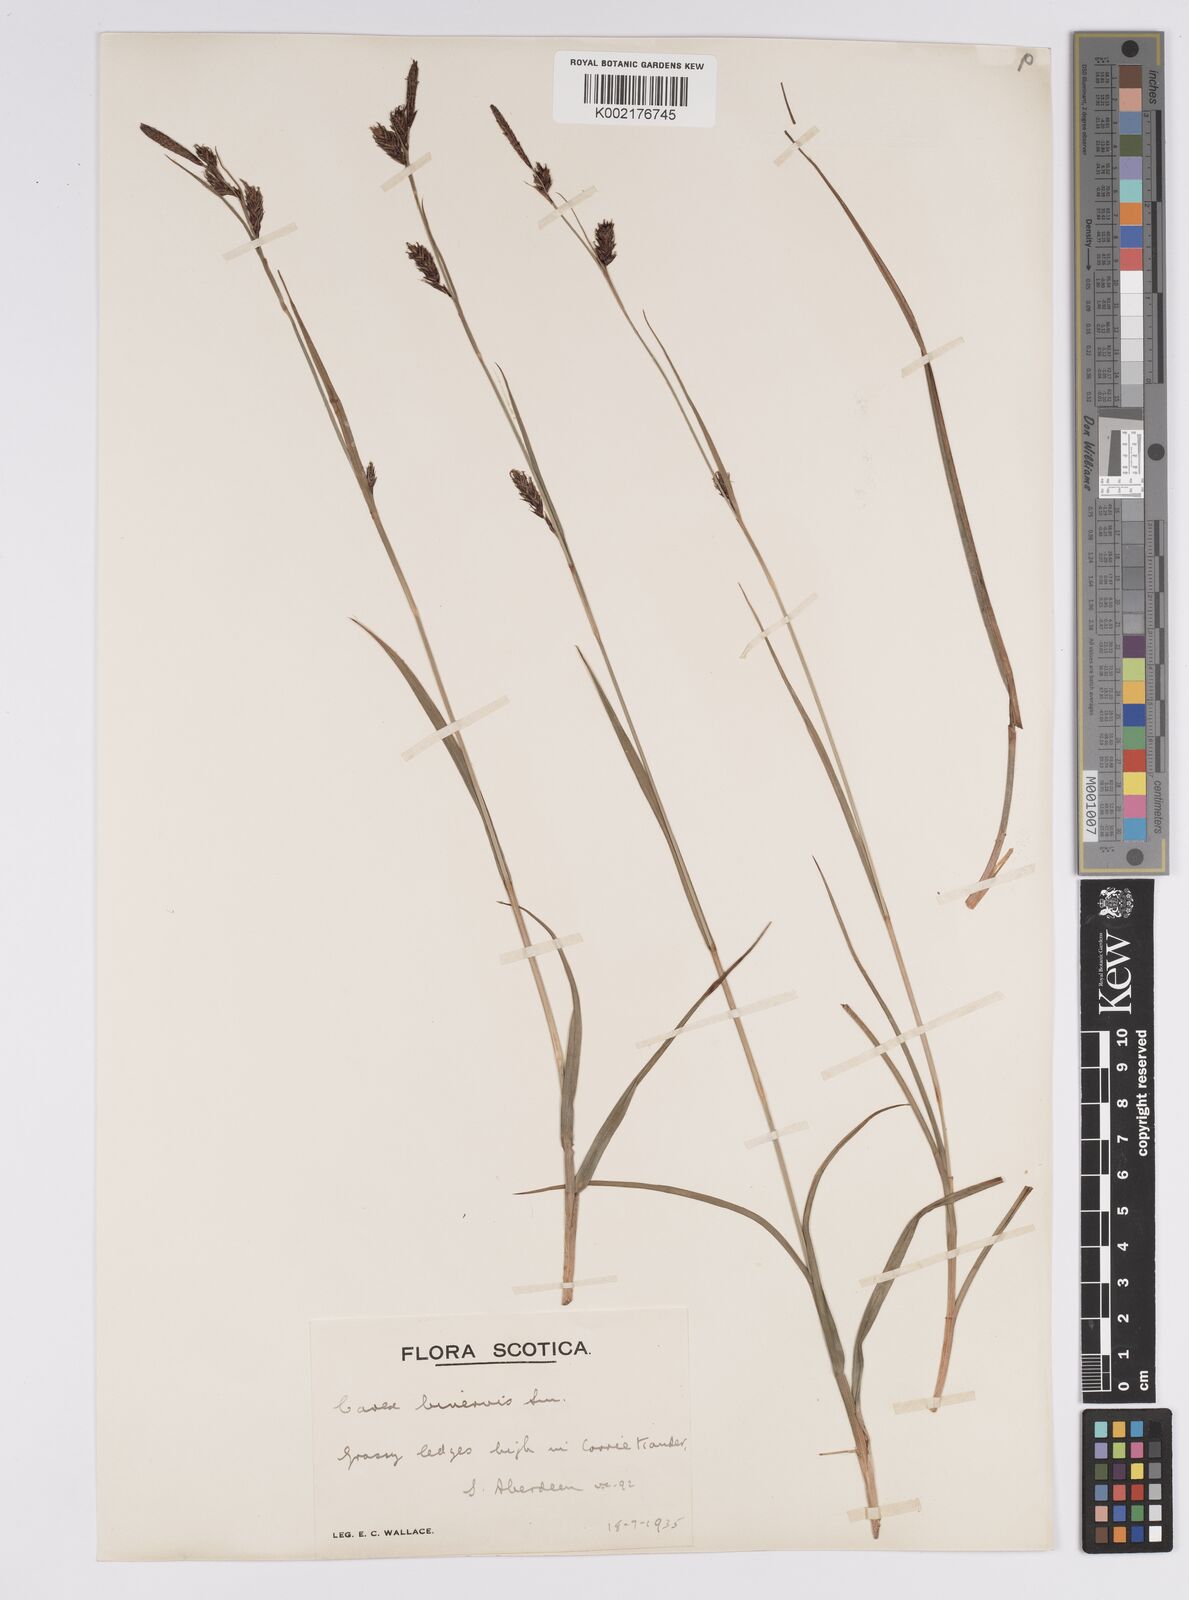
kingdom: Plantae
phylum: Tracheophyta
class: Liliopsida
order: Poales
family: Cyperaceae
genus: Carex
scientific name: Carex binervis
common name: Green-ribbed sedge
